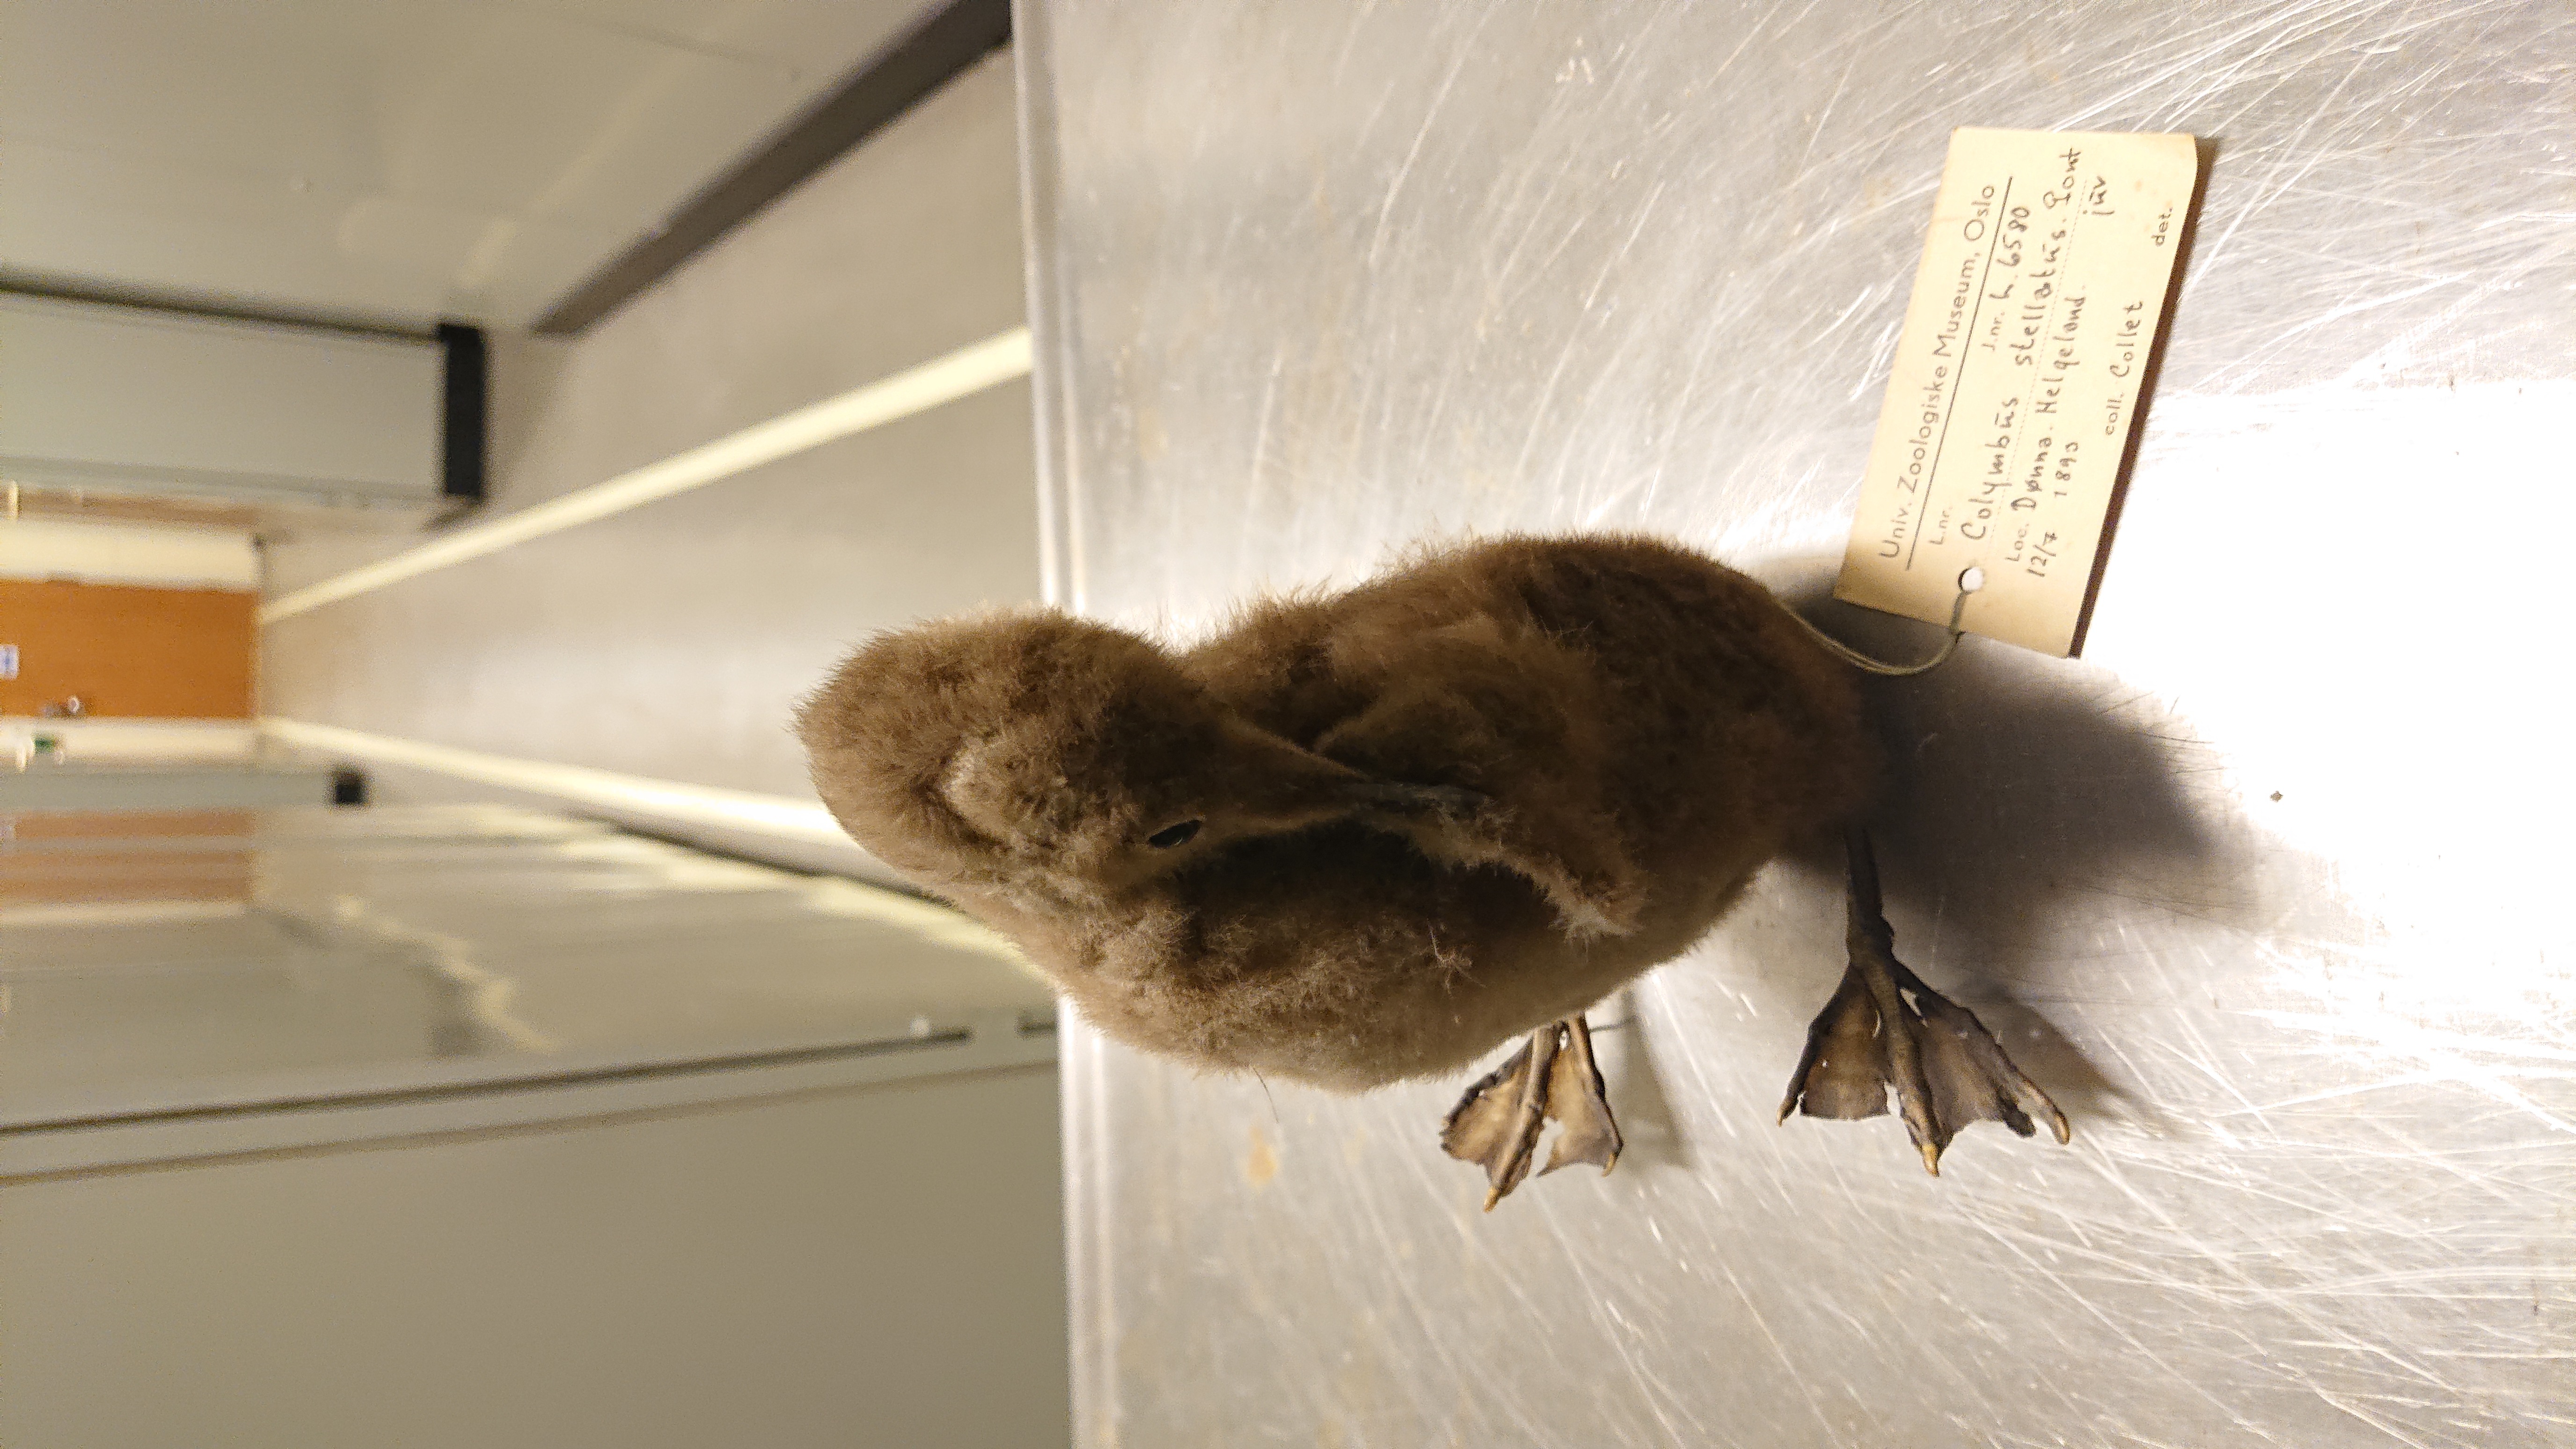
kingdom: Animalia
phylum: Chordata
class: Aves
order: Gaviiformes
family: Gaviidae
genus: Gavia
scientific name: Gavia stellata
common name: Red-throated loon
